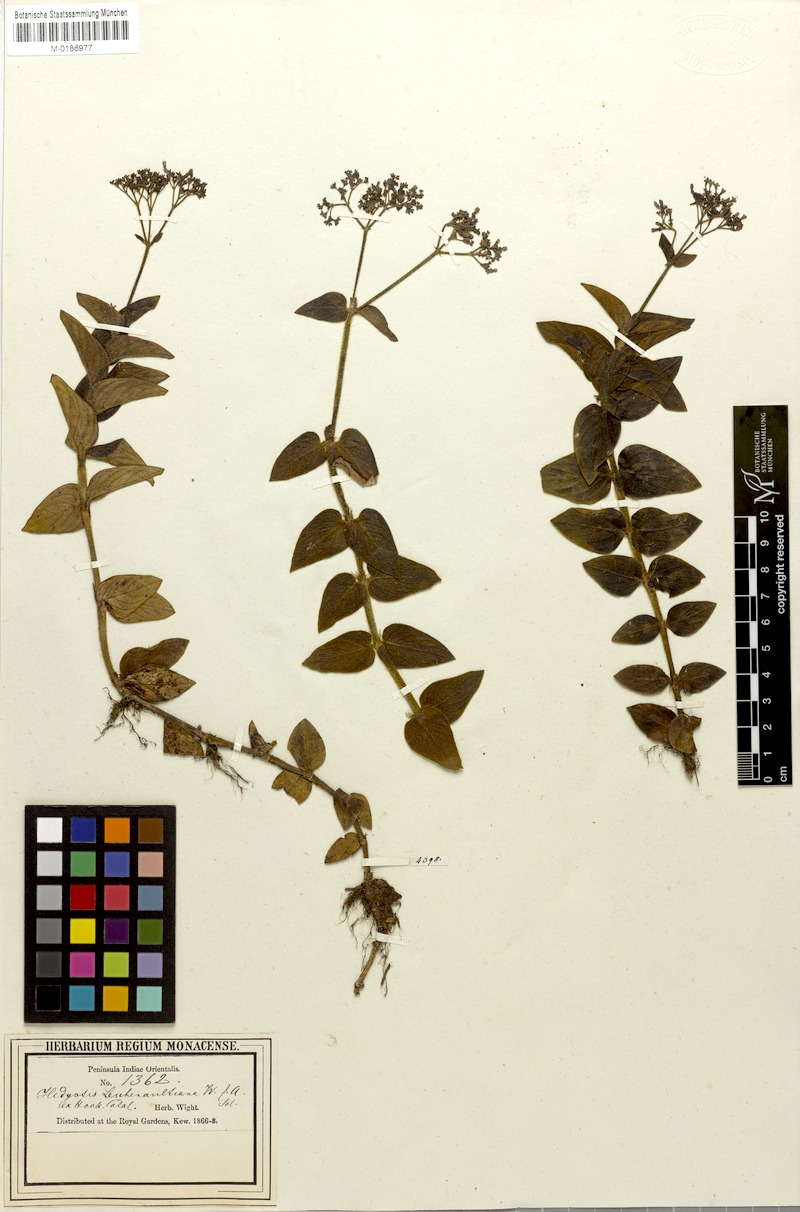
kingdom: Plantae
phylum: Tracheophyta
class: Magnoliopsida
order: Gentianales
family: Rubiaceae
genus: Neanotis
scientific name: Neanotis indica
